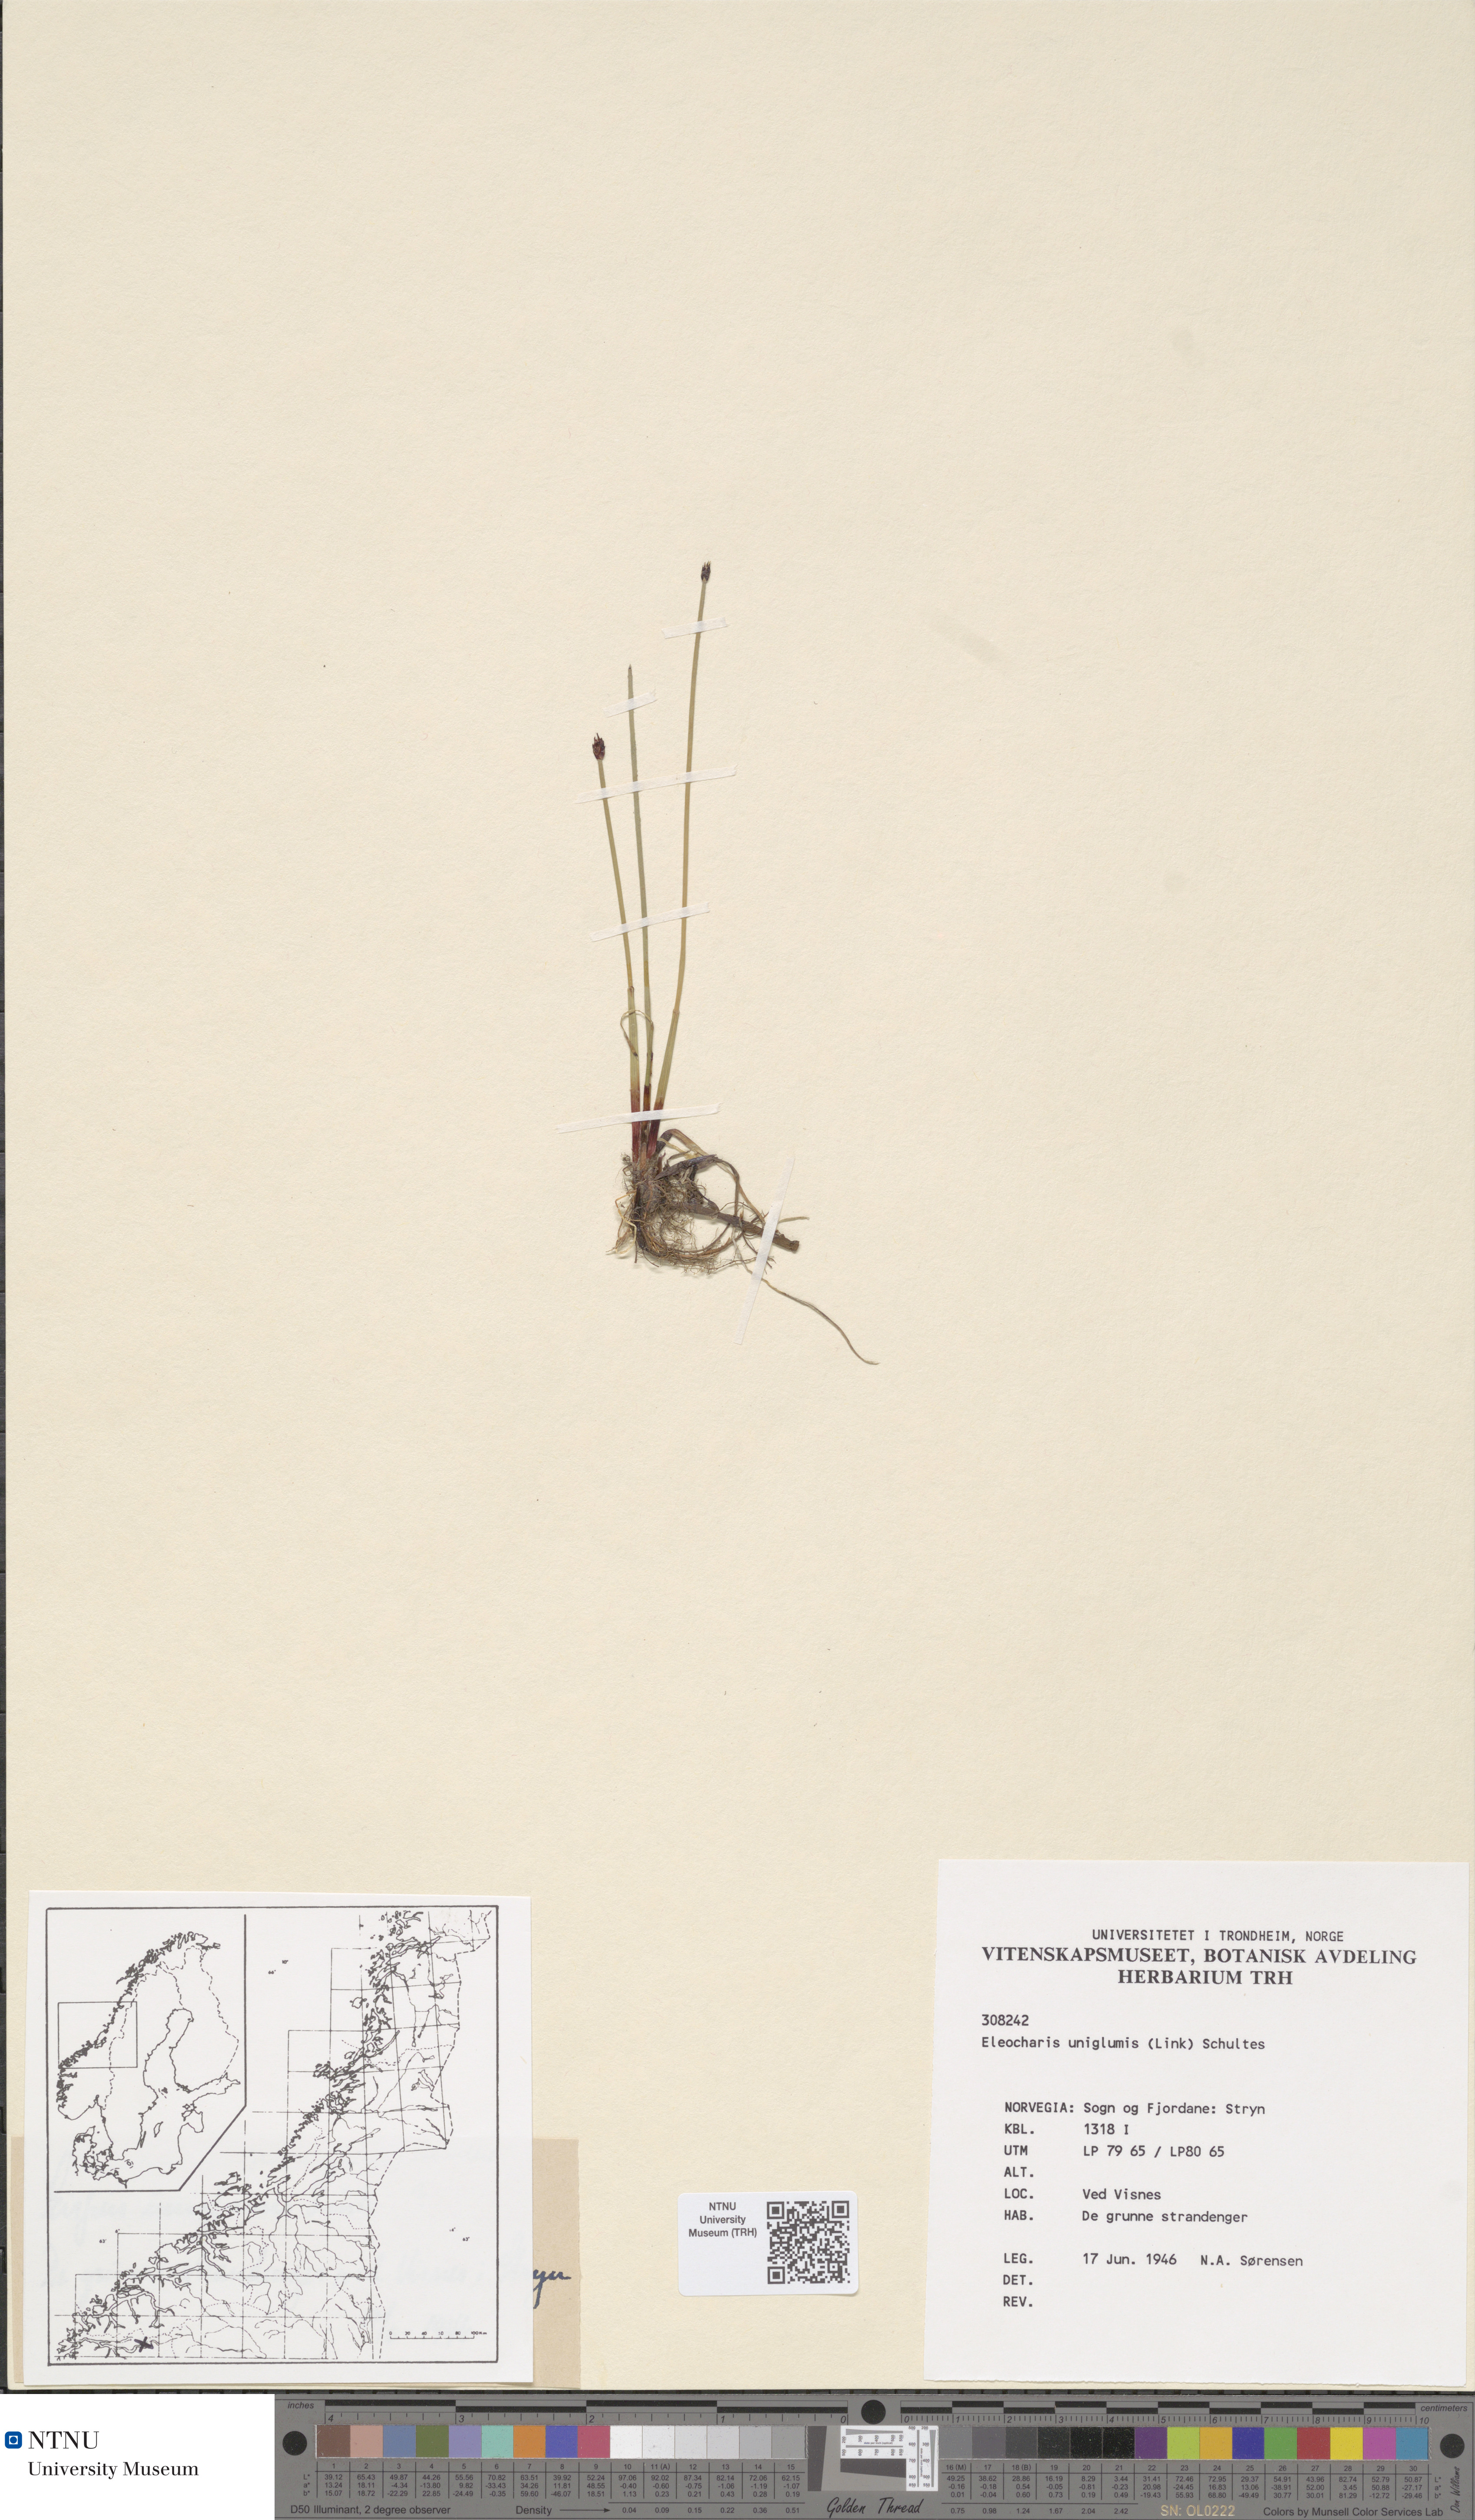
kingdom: Plantae
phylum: Tracheophyta
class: Liliopsida
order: Poales
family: Cyperaceae
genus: Eleocharis
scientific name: Eleocharis uniglumis
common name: Slender spike-rush
